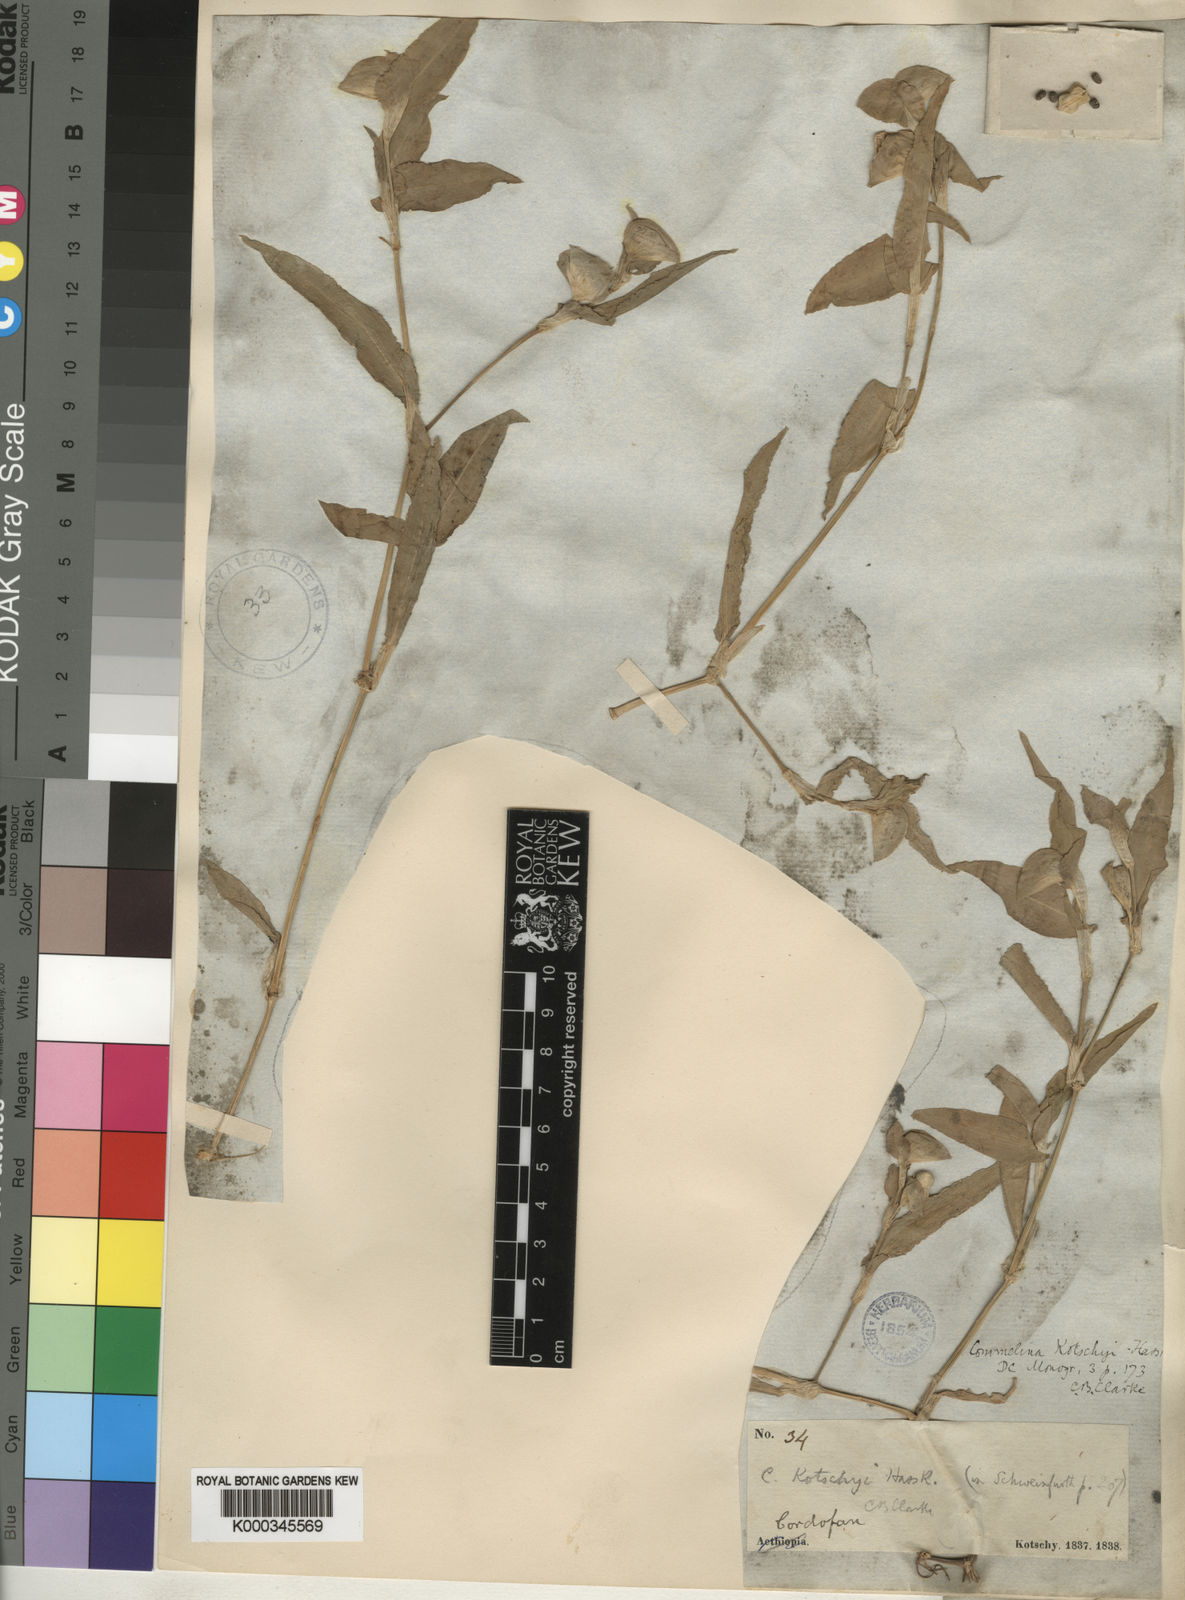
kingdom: Plantae
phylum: Tracheophyta
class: Liliopsida
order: Commelinales
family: Commelinaceae
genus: Commelina
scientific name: Commelina kotschyi
